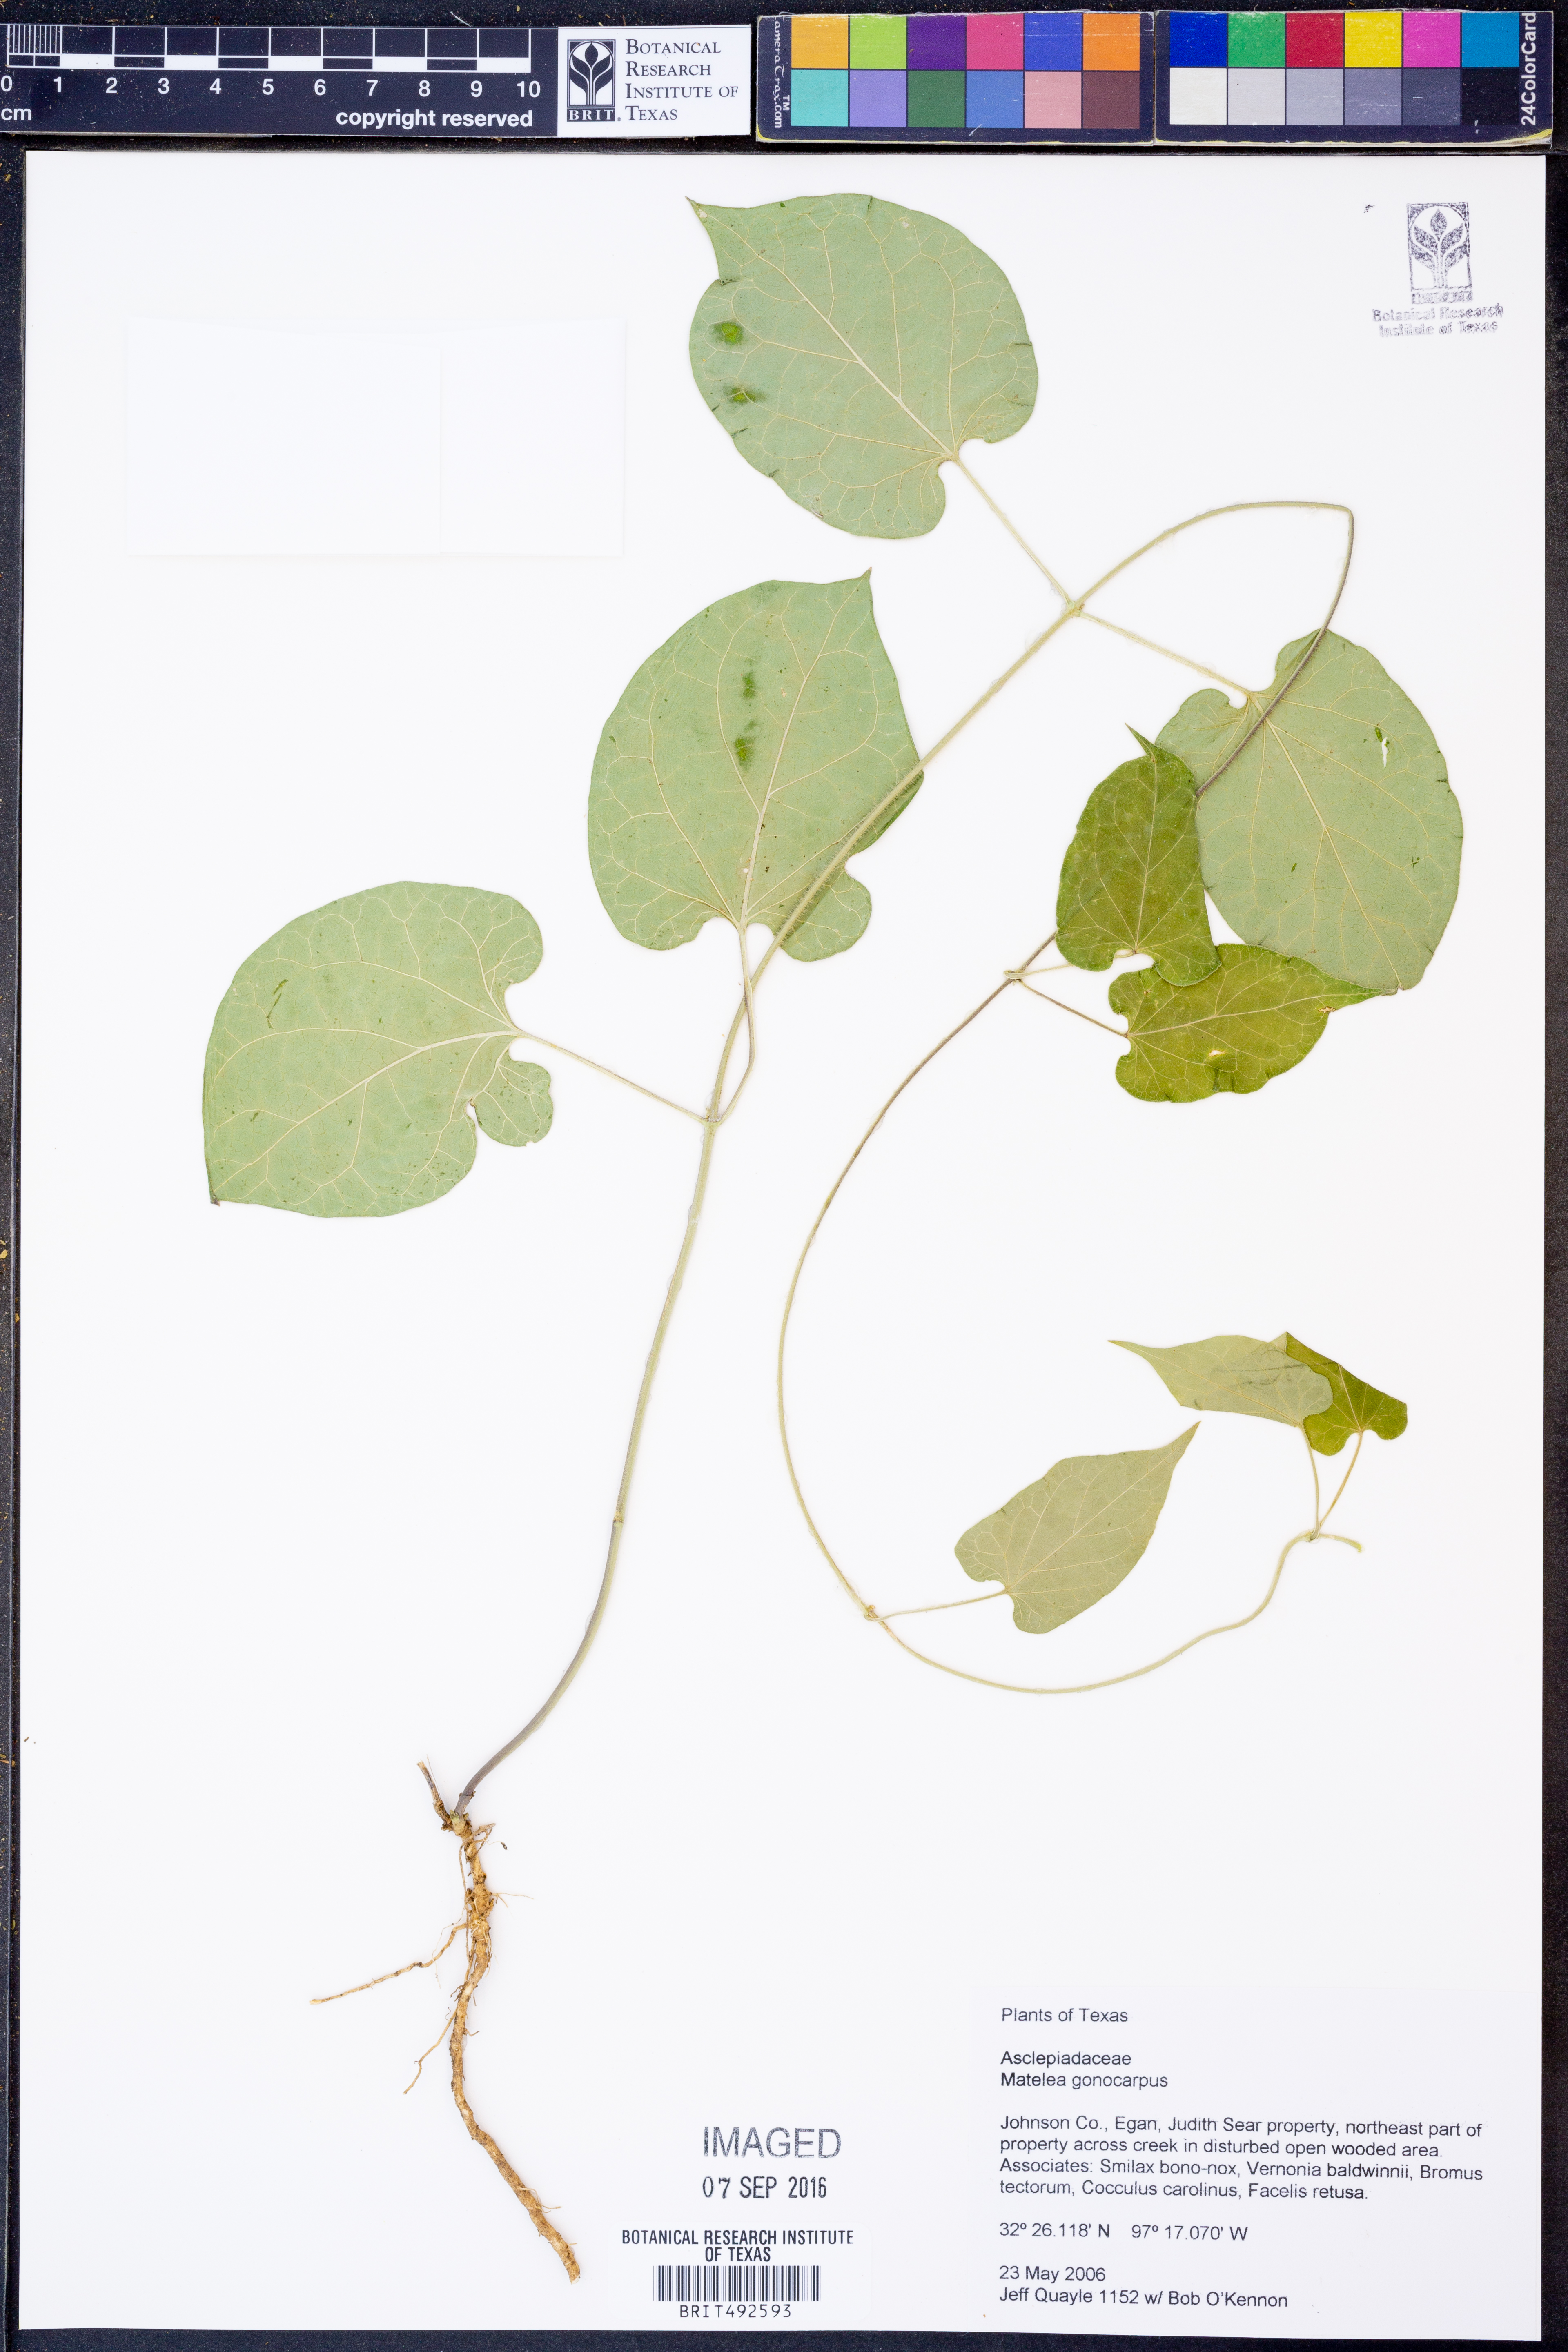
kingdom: Plantae
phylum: Tracheophyta
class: Magnoliopsida
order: Gentianales
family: Apocynaceae
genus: Gonolobus
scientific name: Gonolobus gonocarpus
